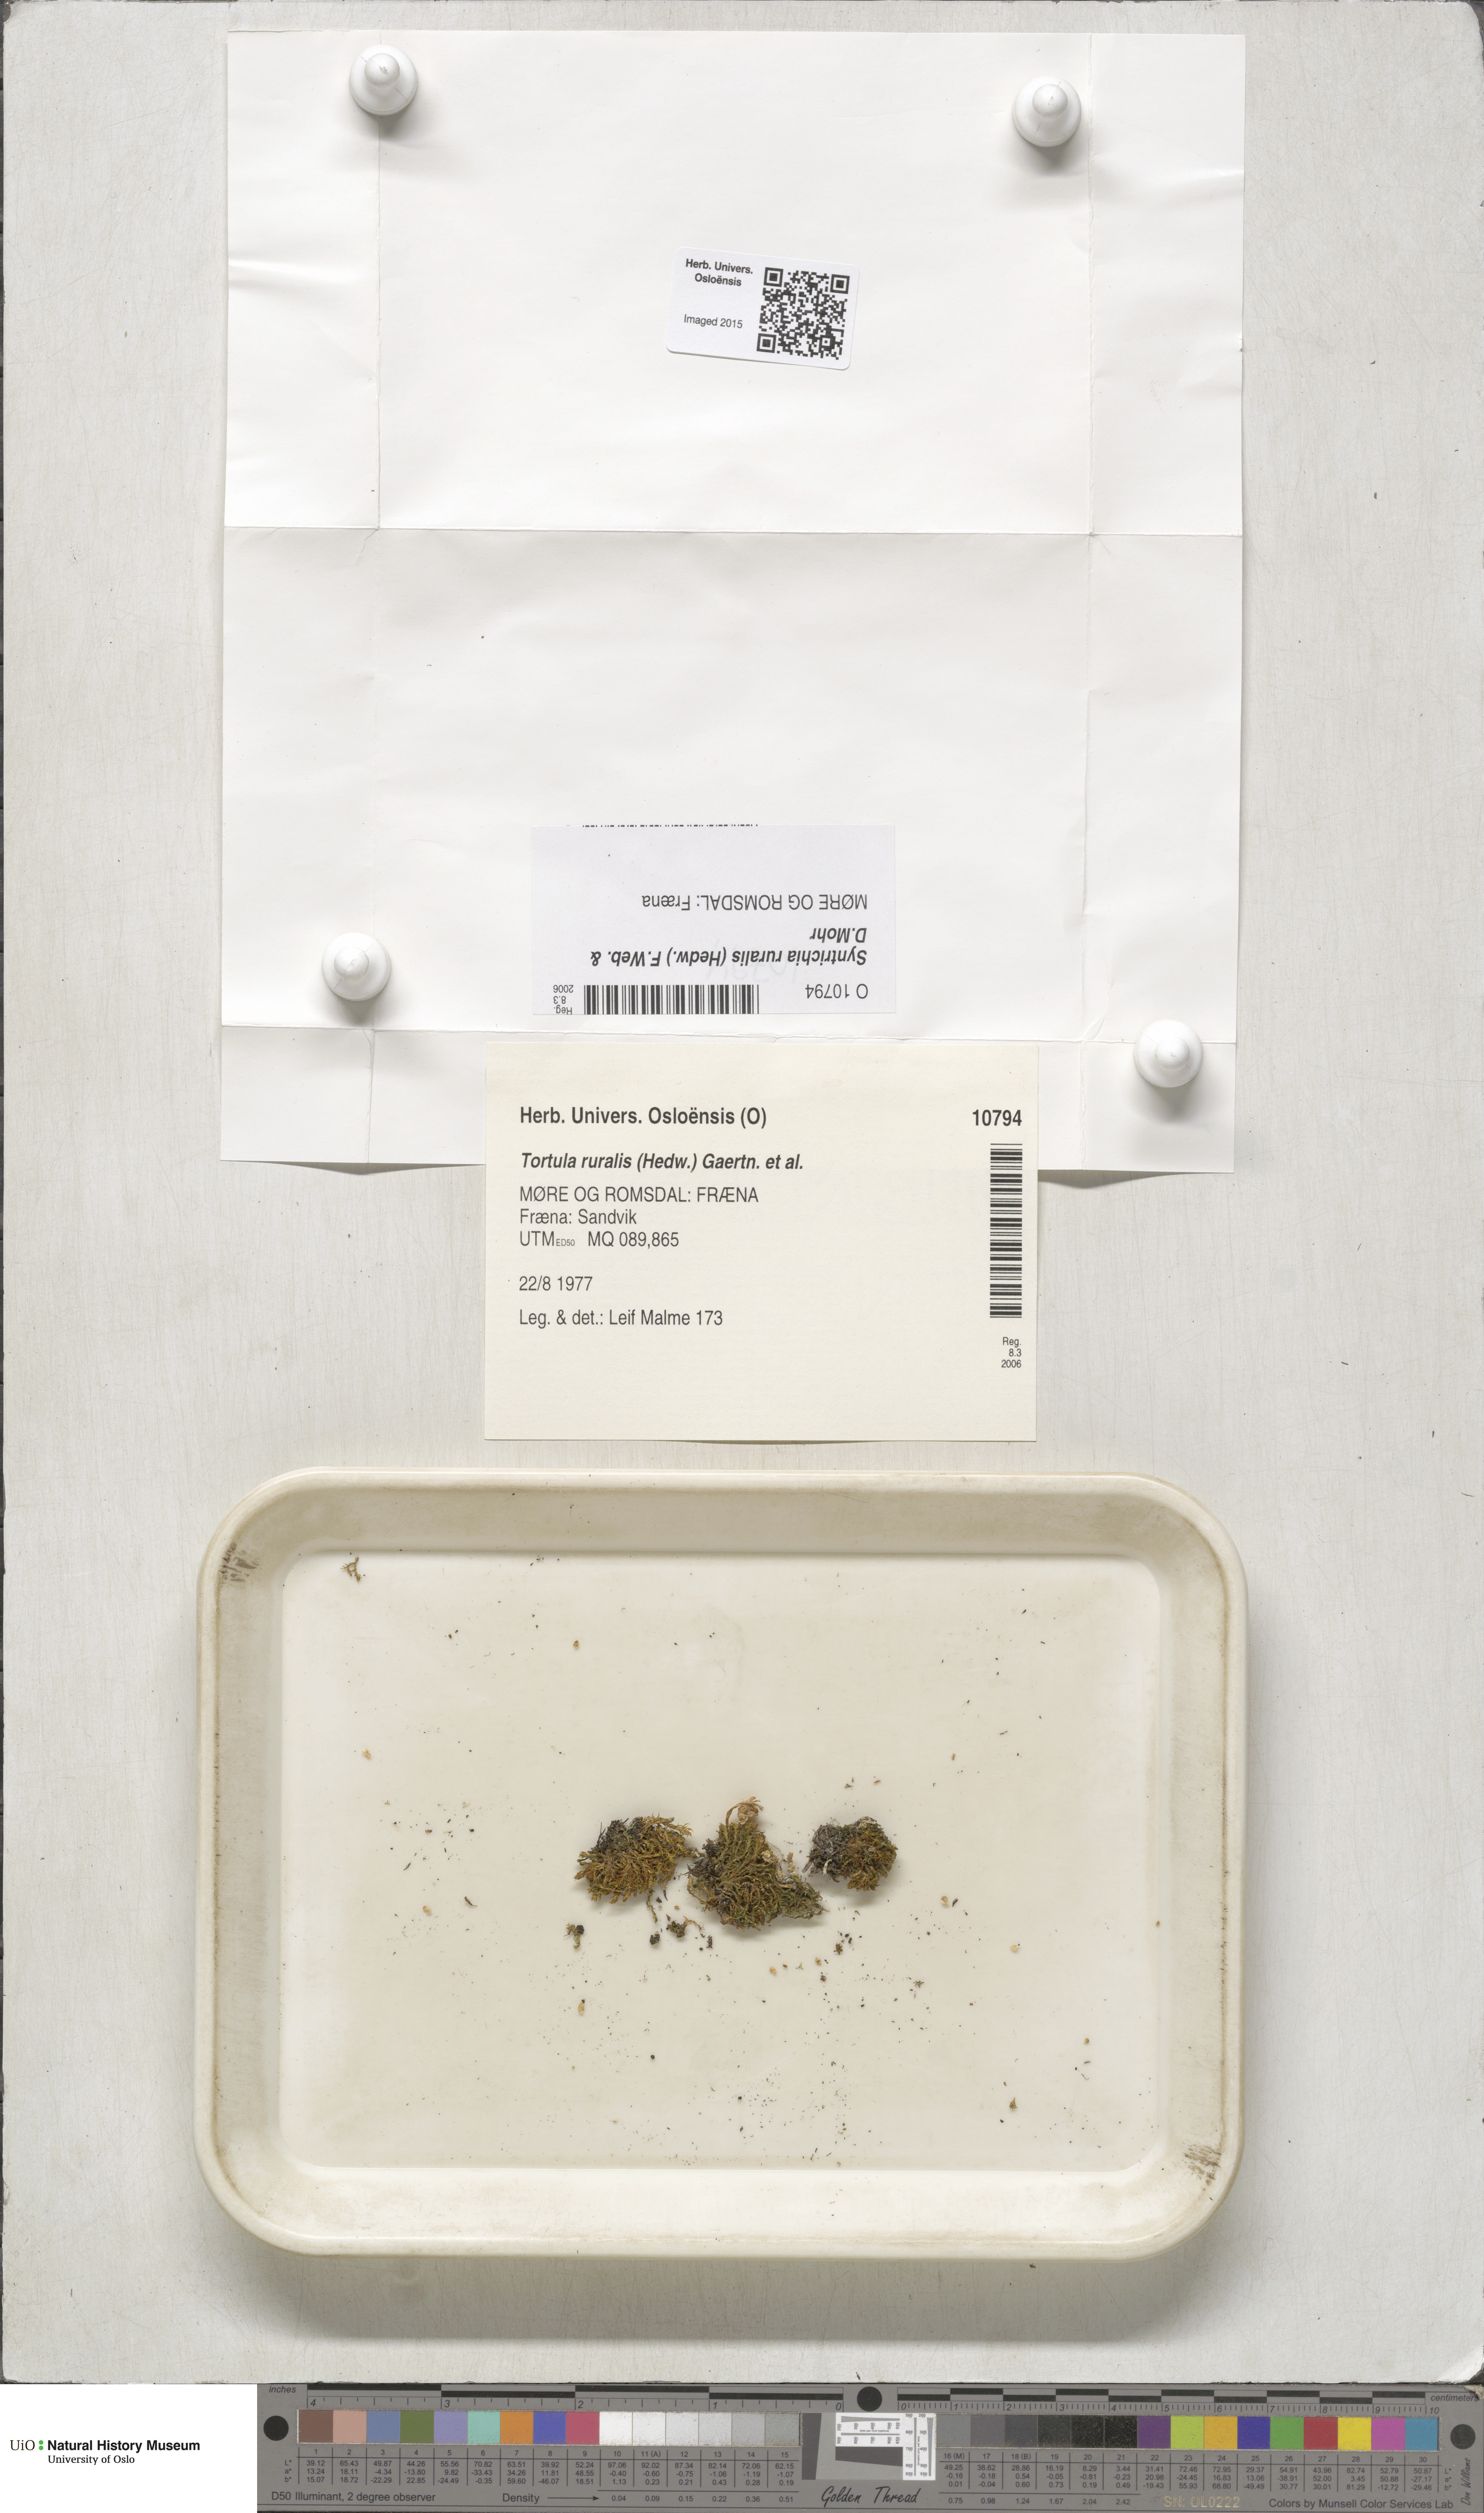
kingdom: Plantae
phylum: Bryophyta
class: Bryopsida
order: Pottiales
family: Pottiaceae
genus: Syntrichia
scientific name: Syntrichia ruralis
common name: Sidewalk screw moss
